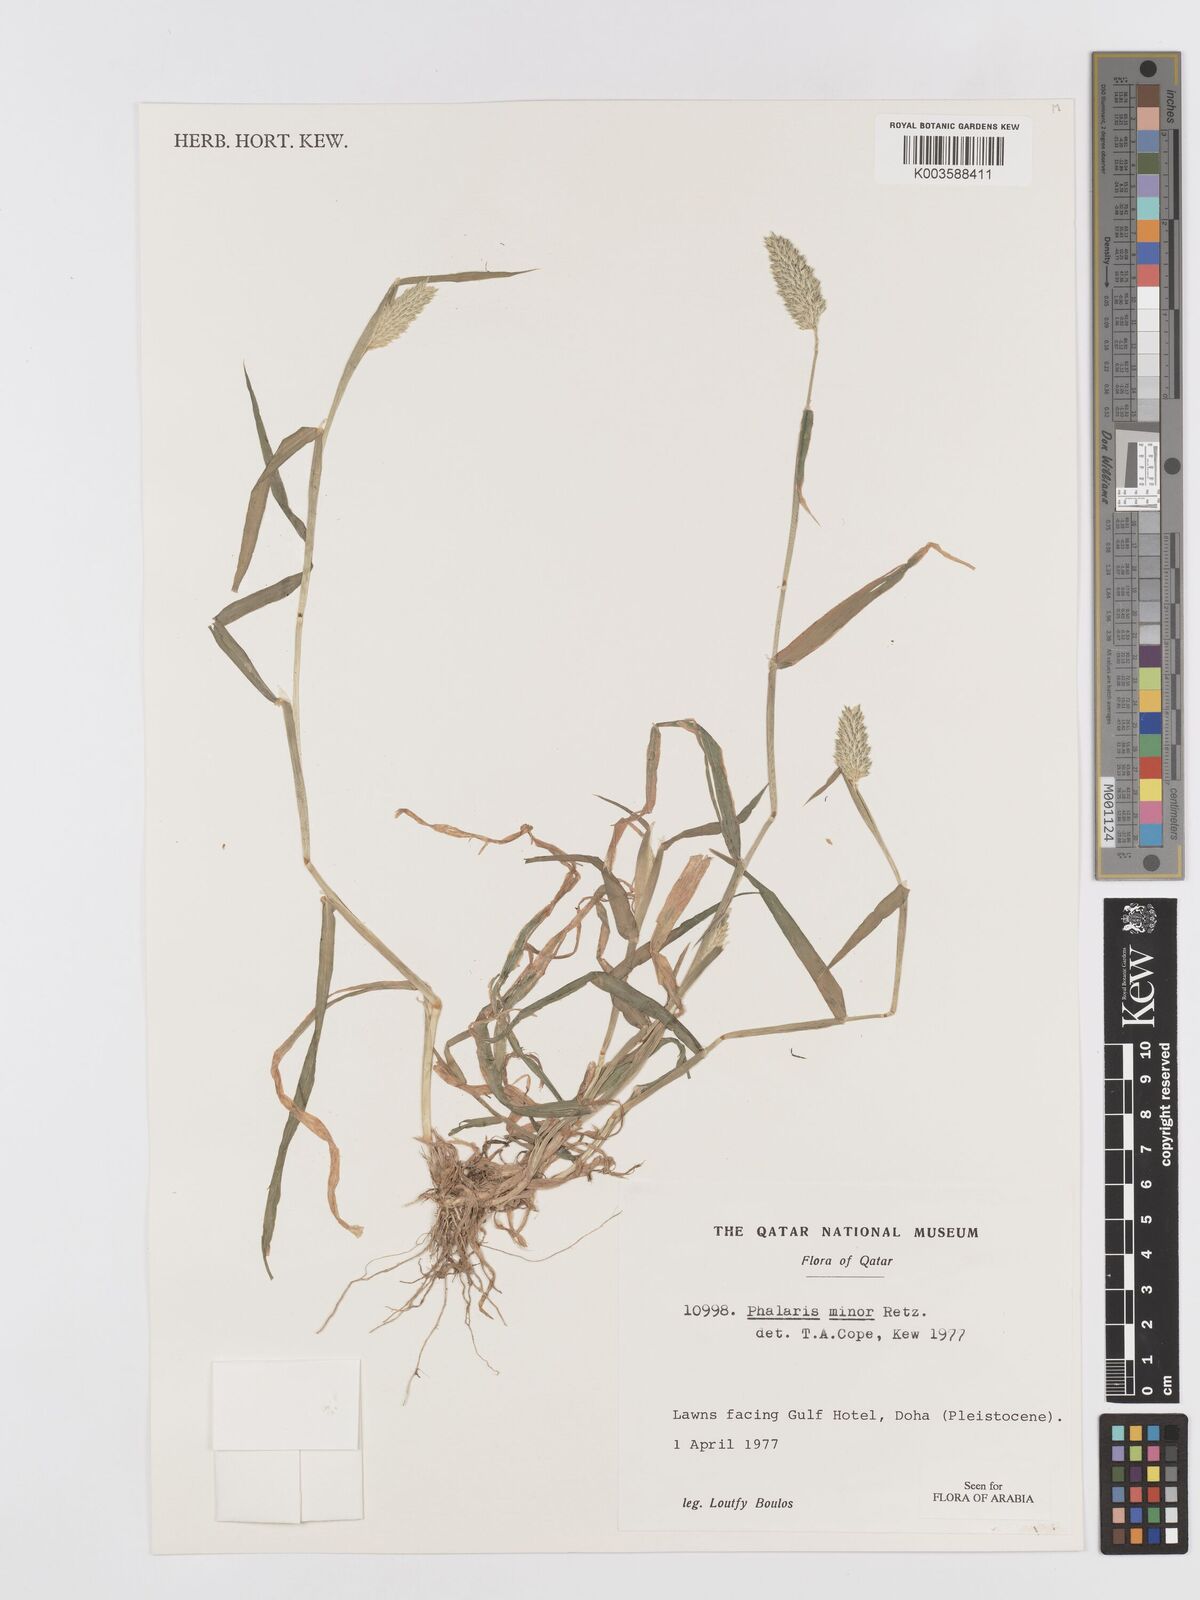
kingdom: Plantae
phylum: Tracheophyta
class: Liliopsida
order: Poales
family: Poaceae
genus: Phalaris
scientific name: Phalaris minor
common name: Littleseed canarygrass
